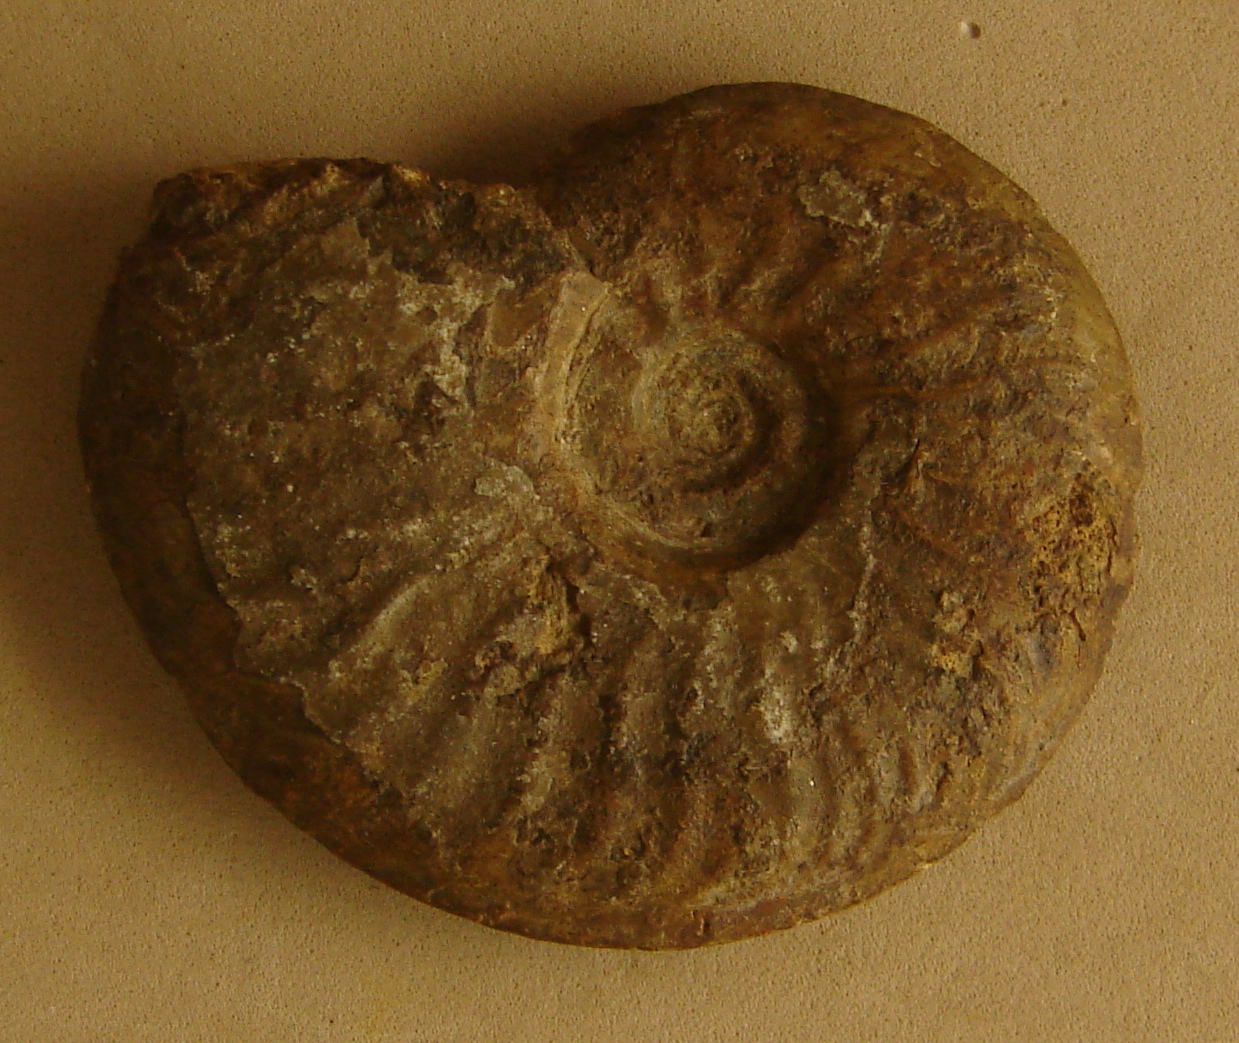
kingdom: Animalia
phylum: Mollusca
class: Cephalopoda
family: Hildoceratidae
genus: Pleydellia
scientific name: Pleydellia
